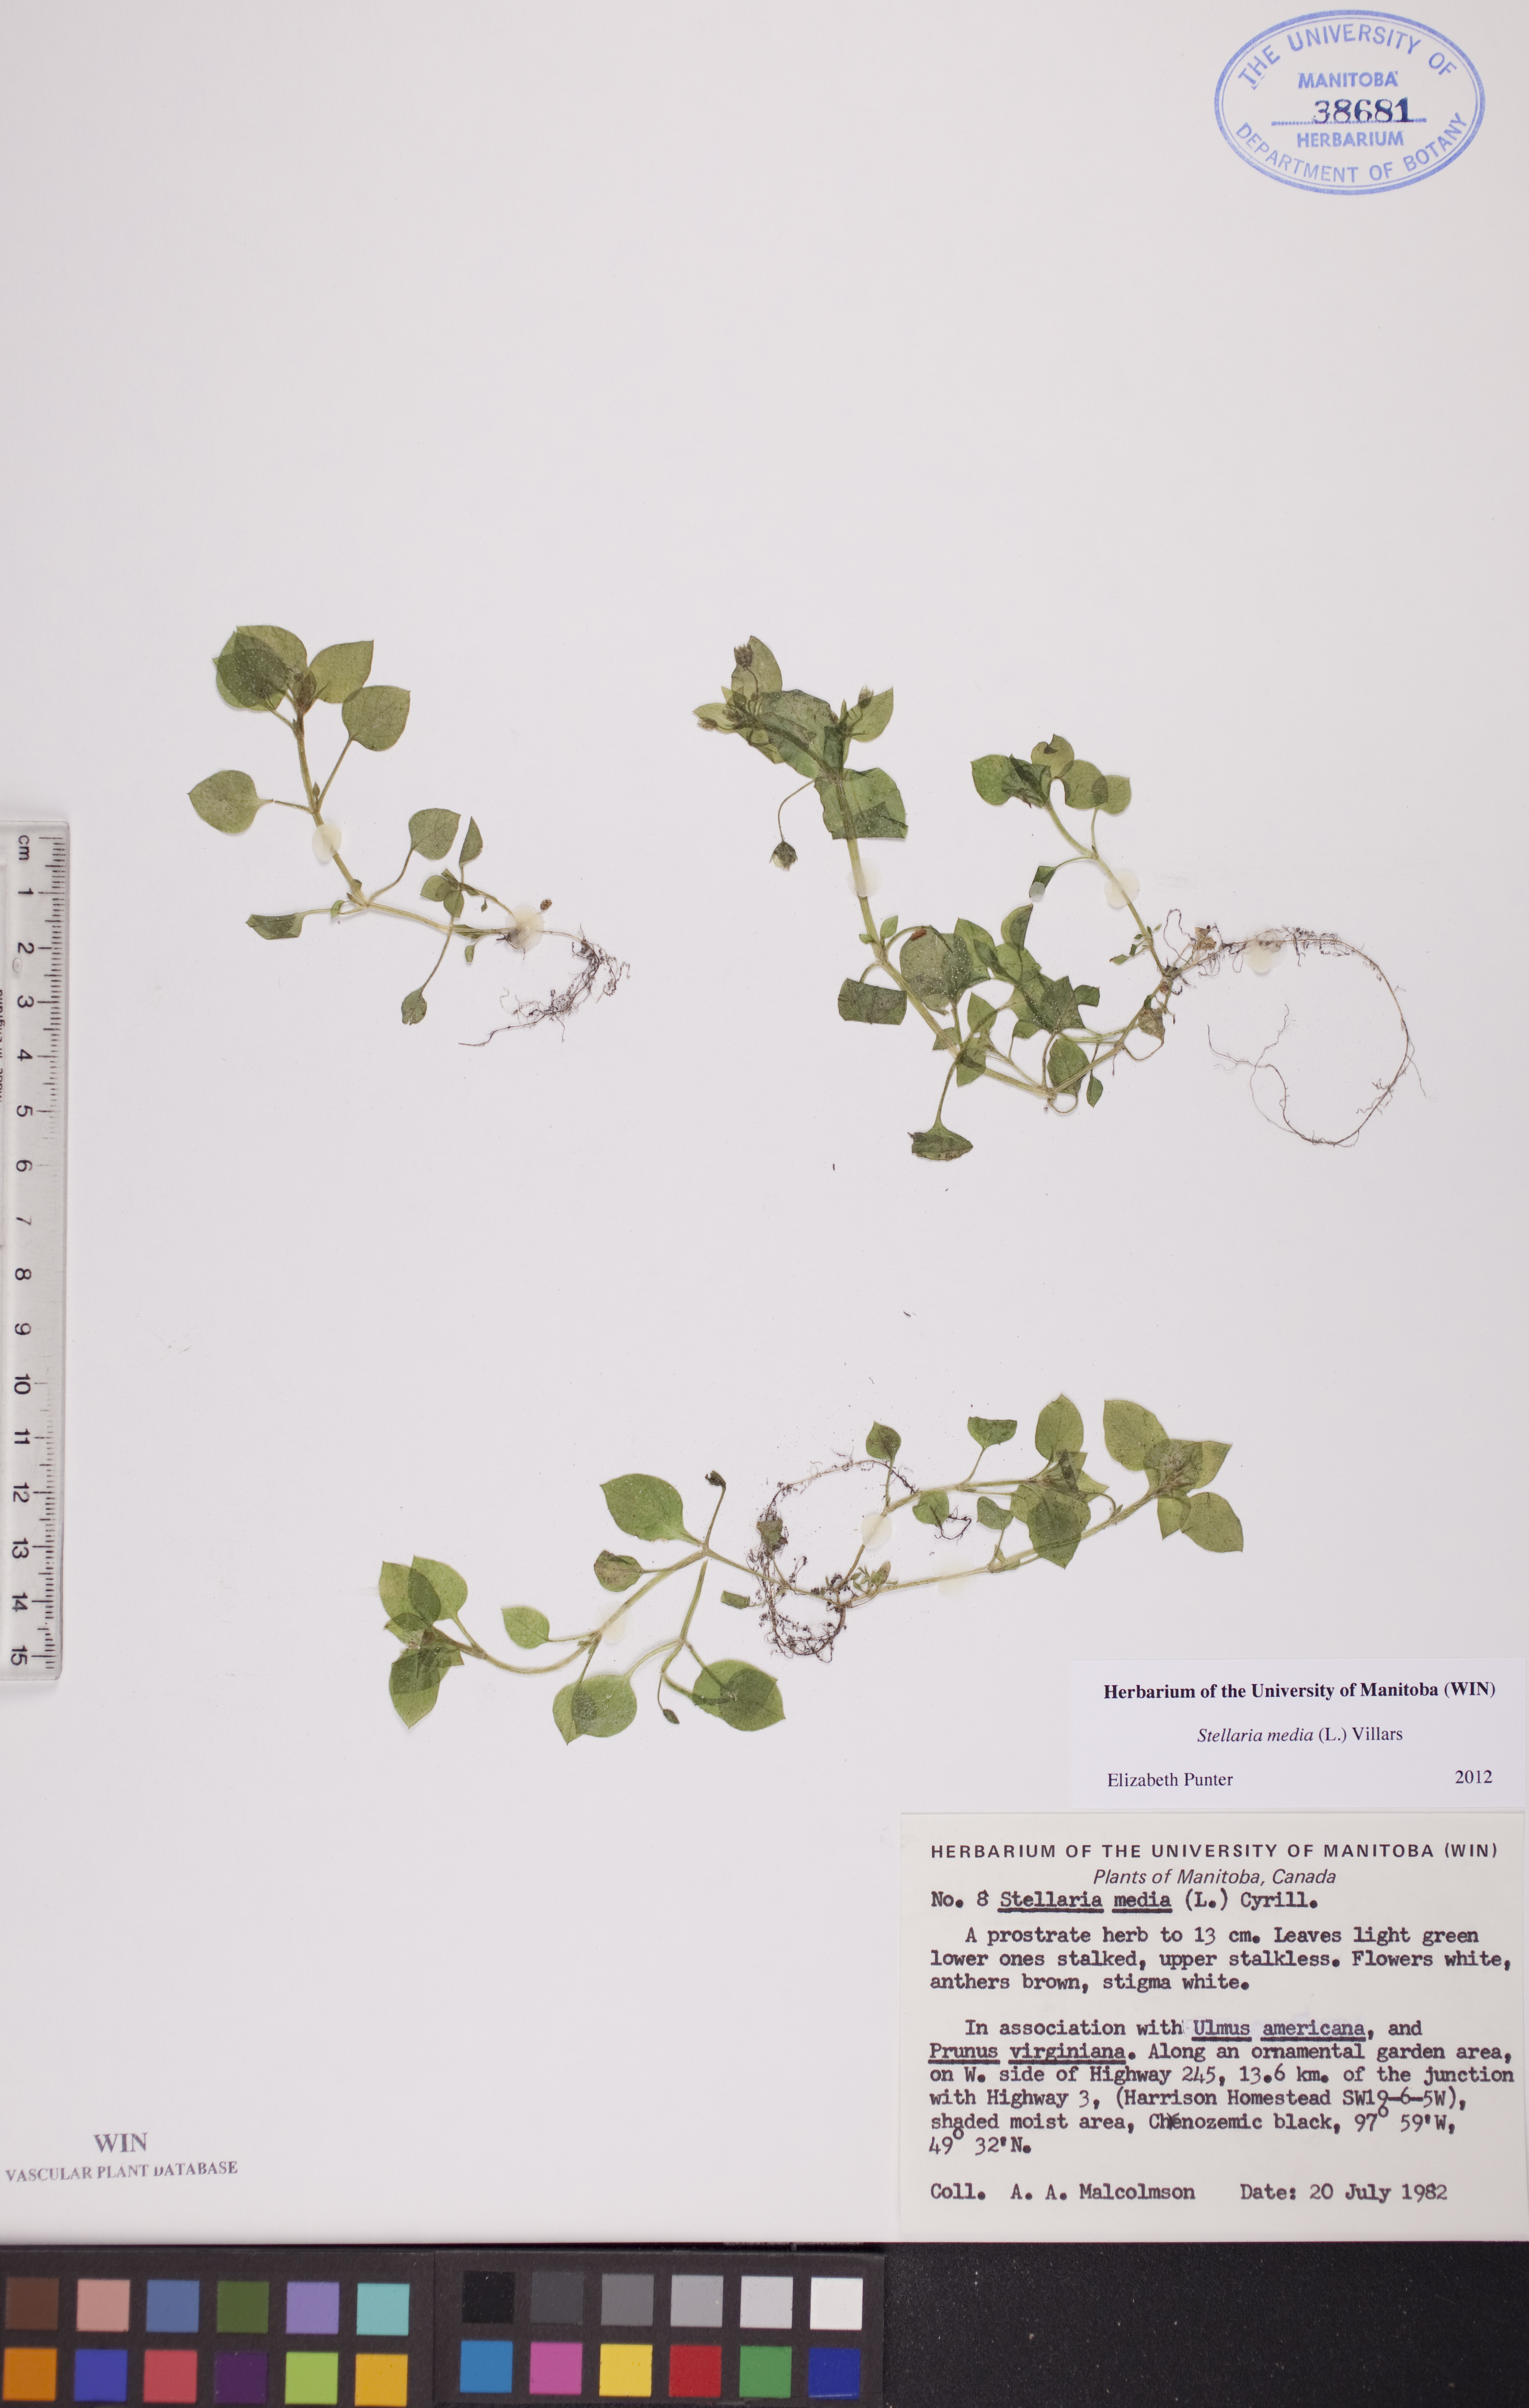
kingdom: Plantae
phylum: Tracheophyta
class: Magnoliopsida
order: Caryophyllales
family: Caryophyllaceae
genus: Stellaria
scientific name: Stellaria media
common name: Common chickweed
